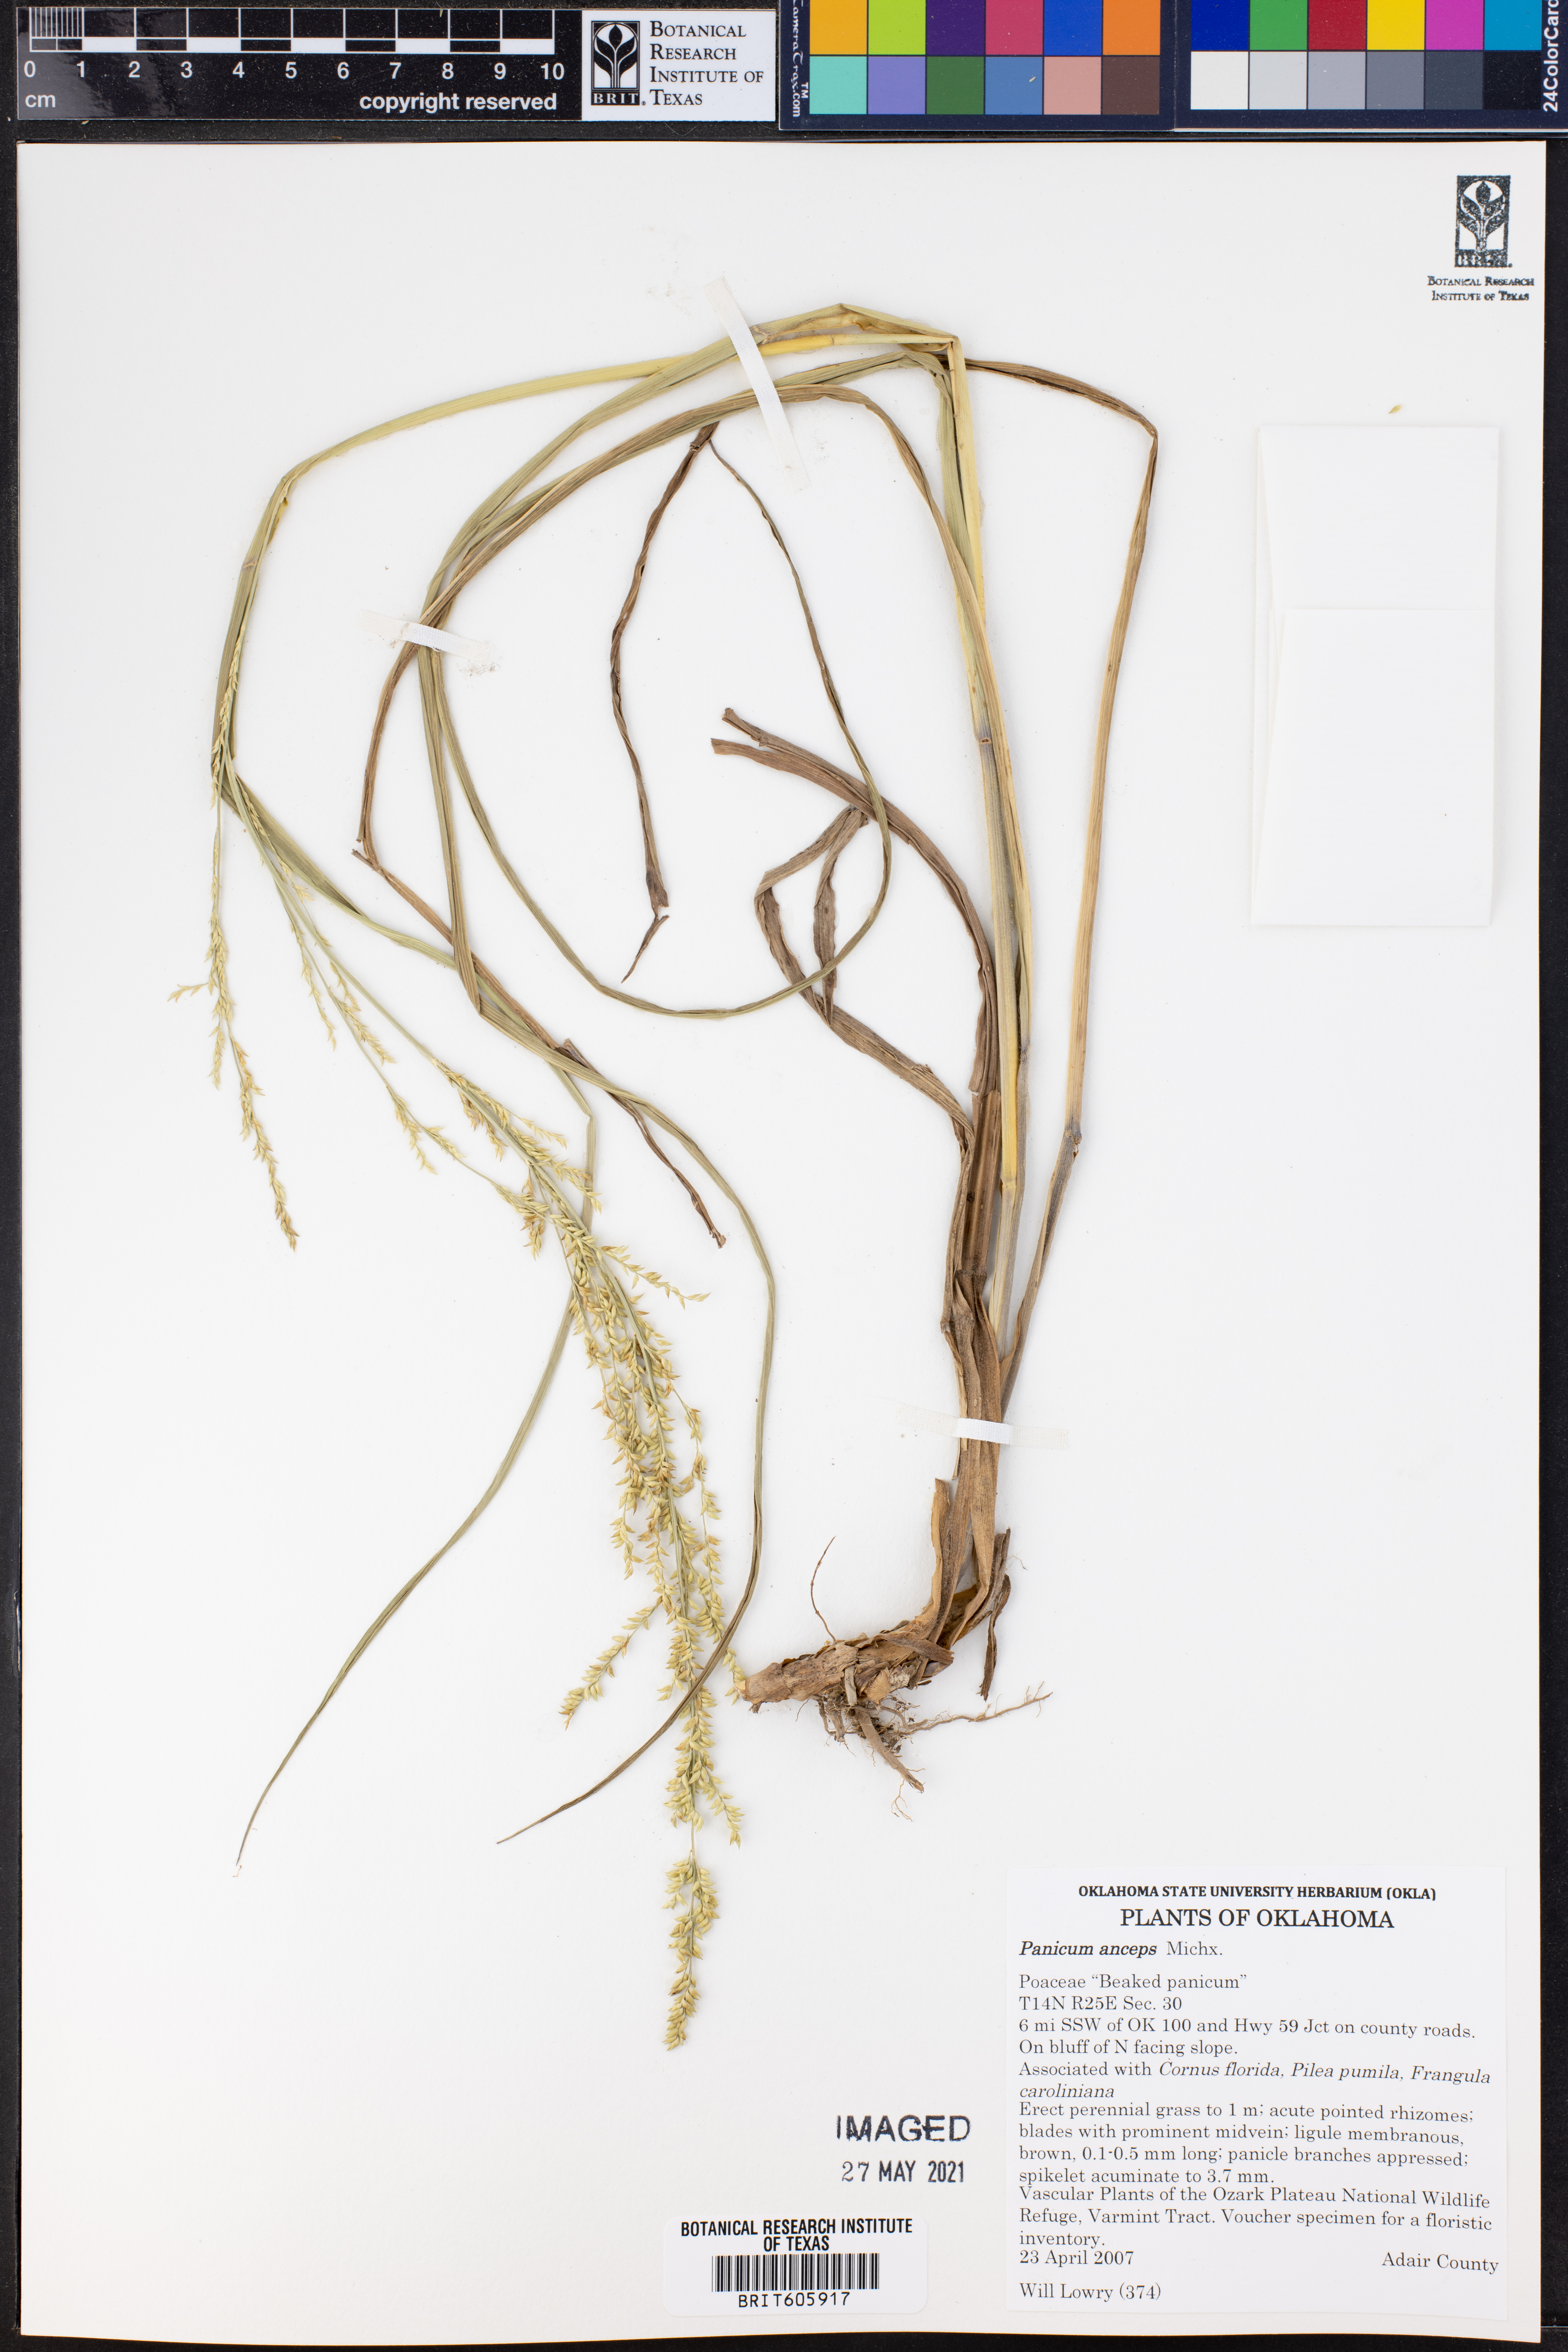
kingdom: Plantae
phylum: Tracheophyta
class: Liliopsida
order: Poales
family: Poaceae
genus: Coleataenia
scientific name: Coleataenia anceps
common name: Beaked panic grass
